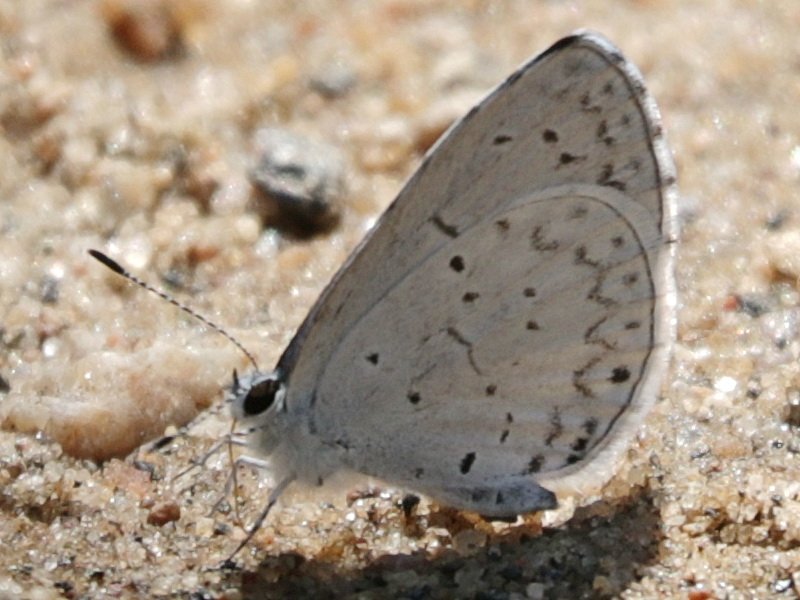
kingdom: Animalia
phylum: Arthropoda
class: Insecta
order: Lepidoptera
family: Lycaenidae
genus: Celastrina
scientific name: Celastrina lucia
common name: Northern Spring Azure
